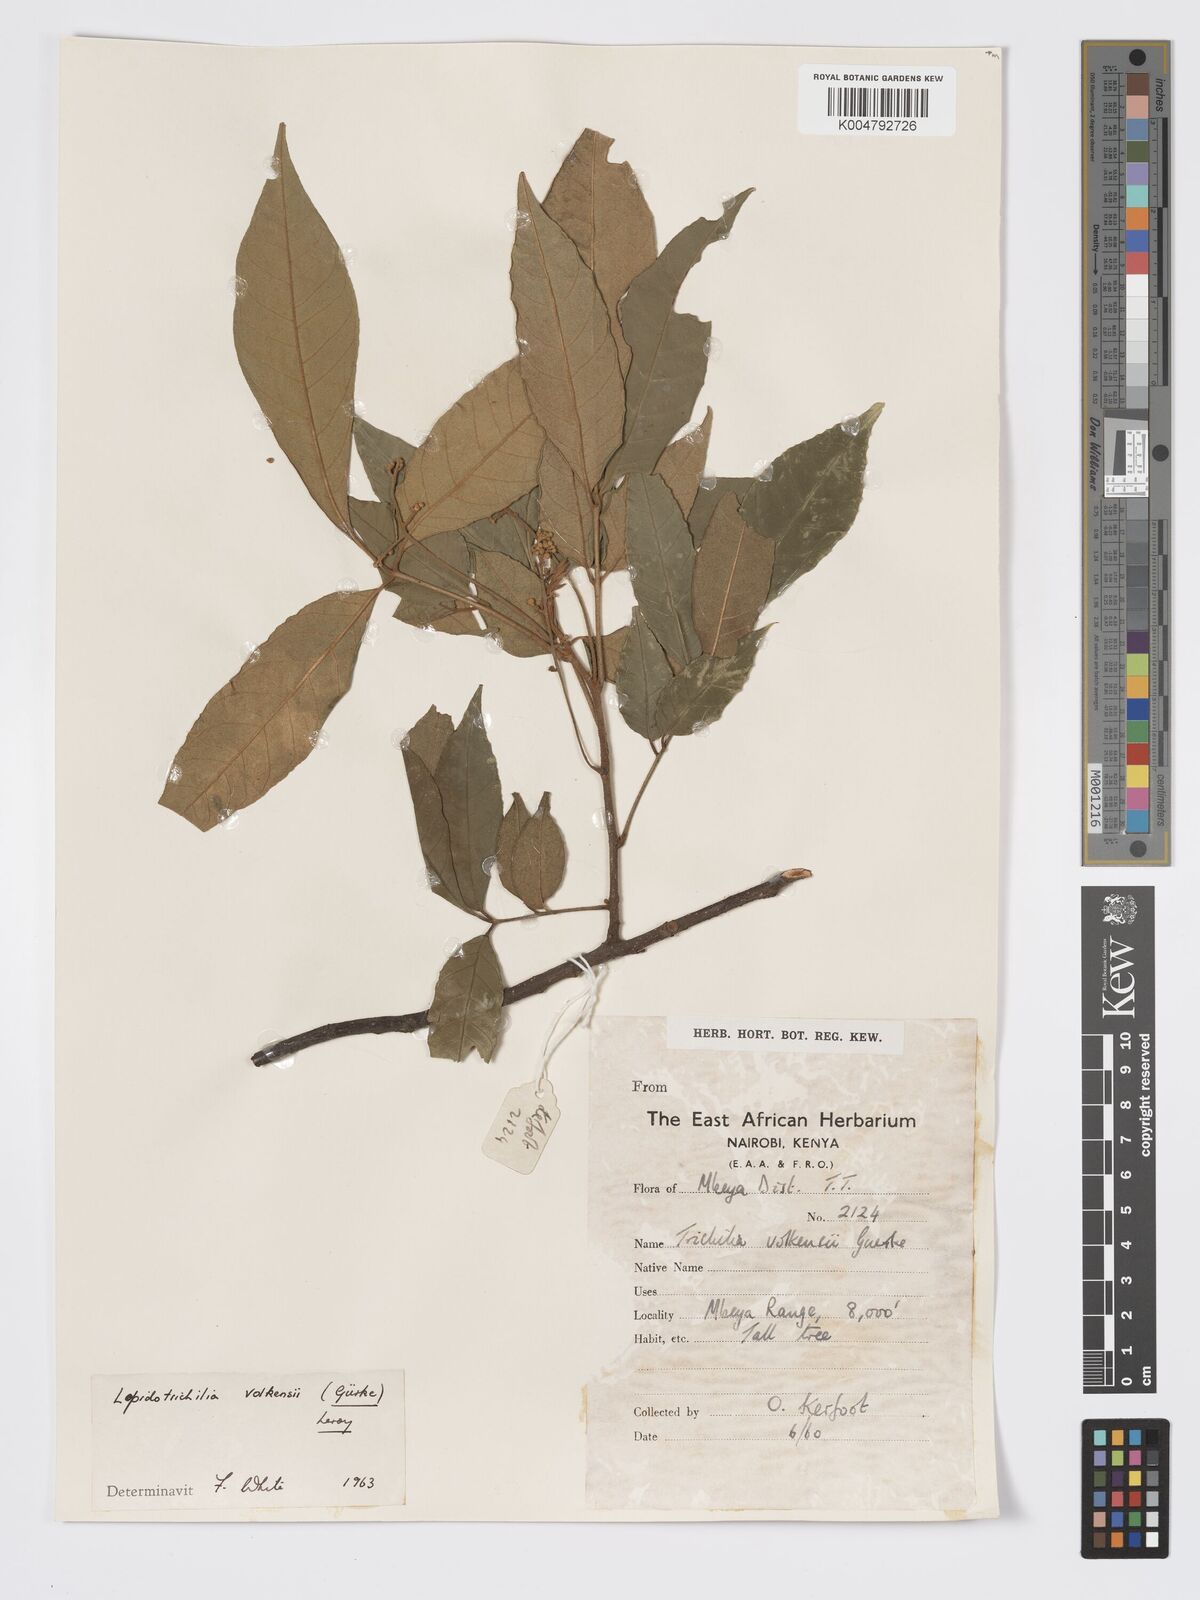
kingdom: Plantae
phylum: Tracheophyta
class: Magnoliopsida
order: Sapindales
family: Meliaceae
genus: Lepidotrichilia
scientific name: Lepidotrichilia volkensii
